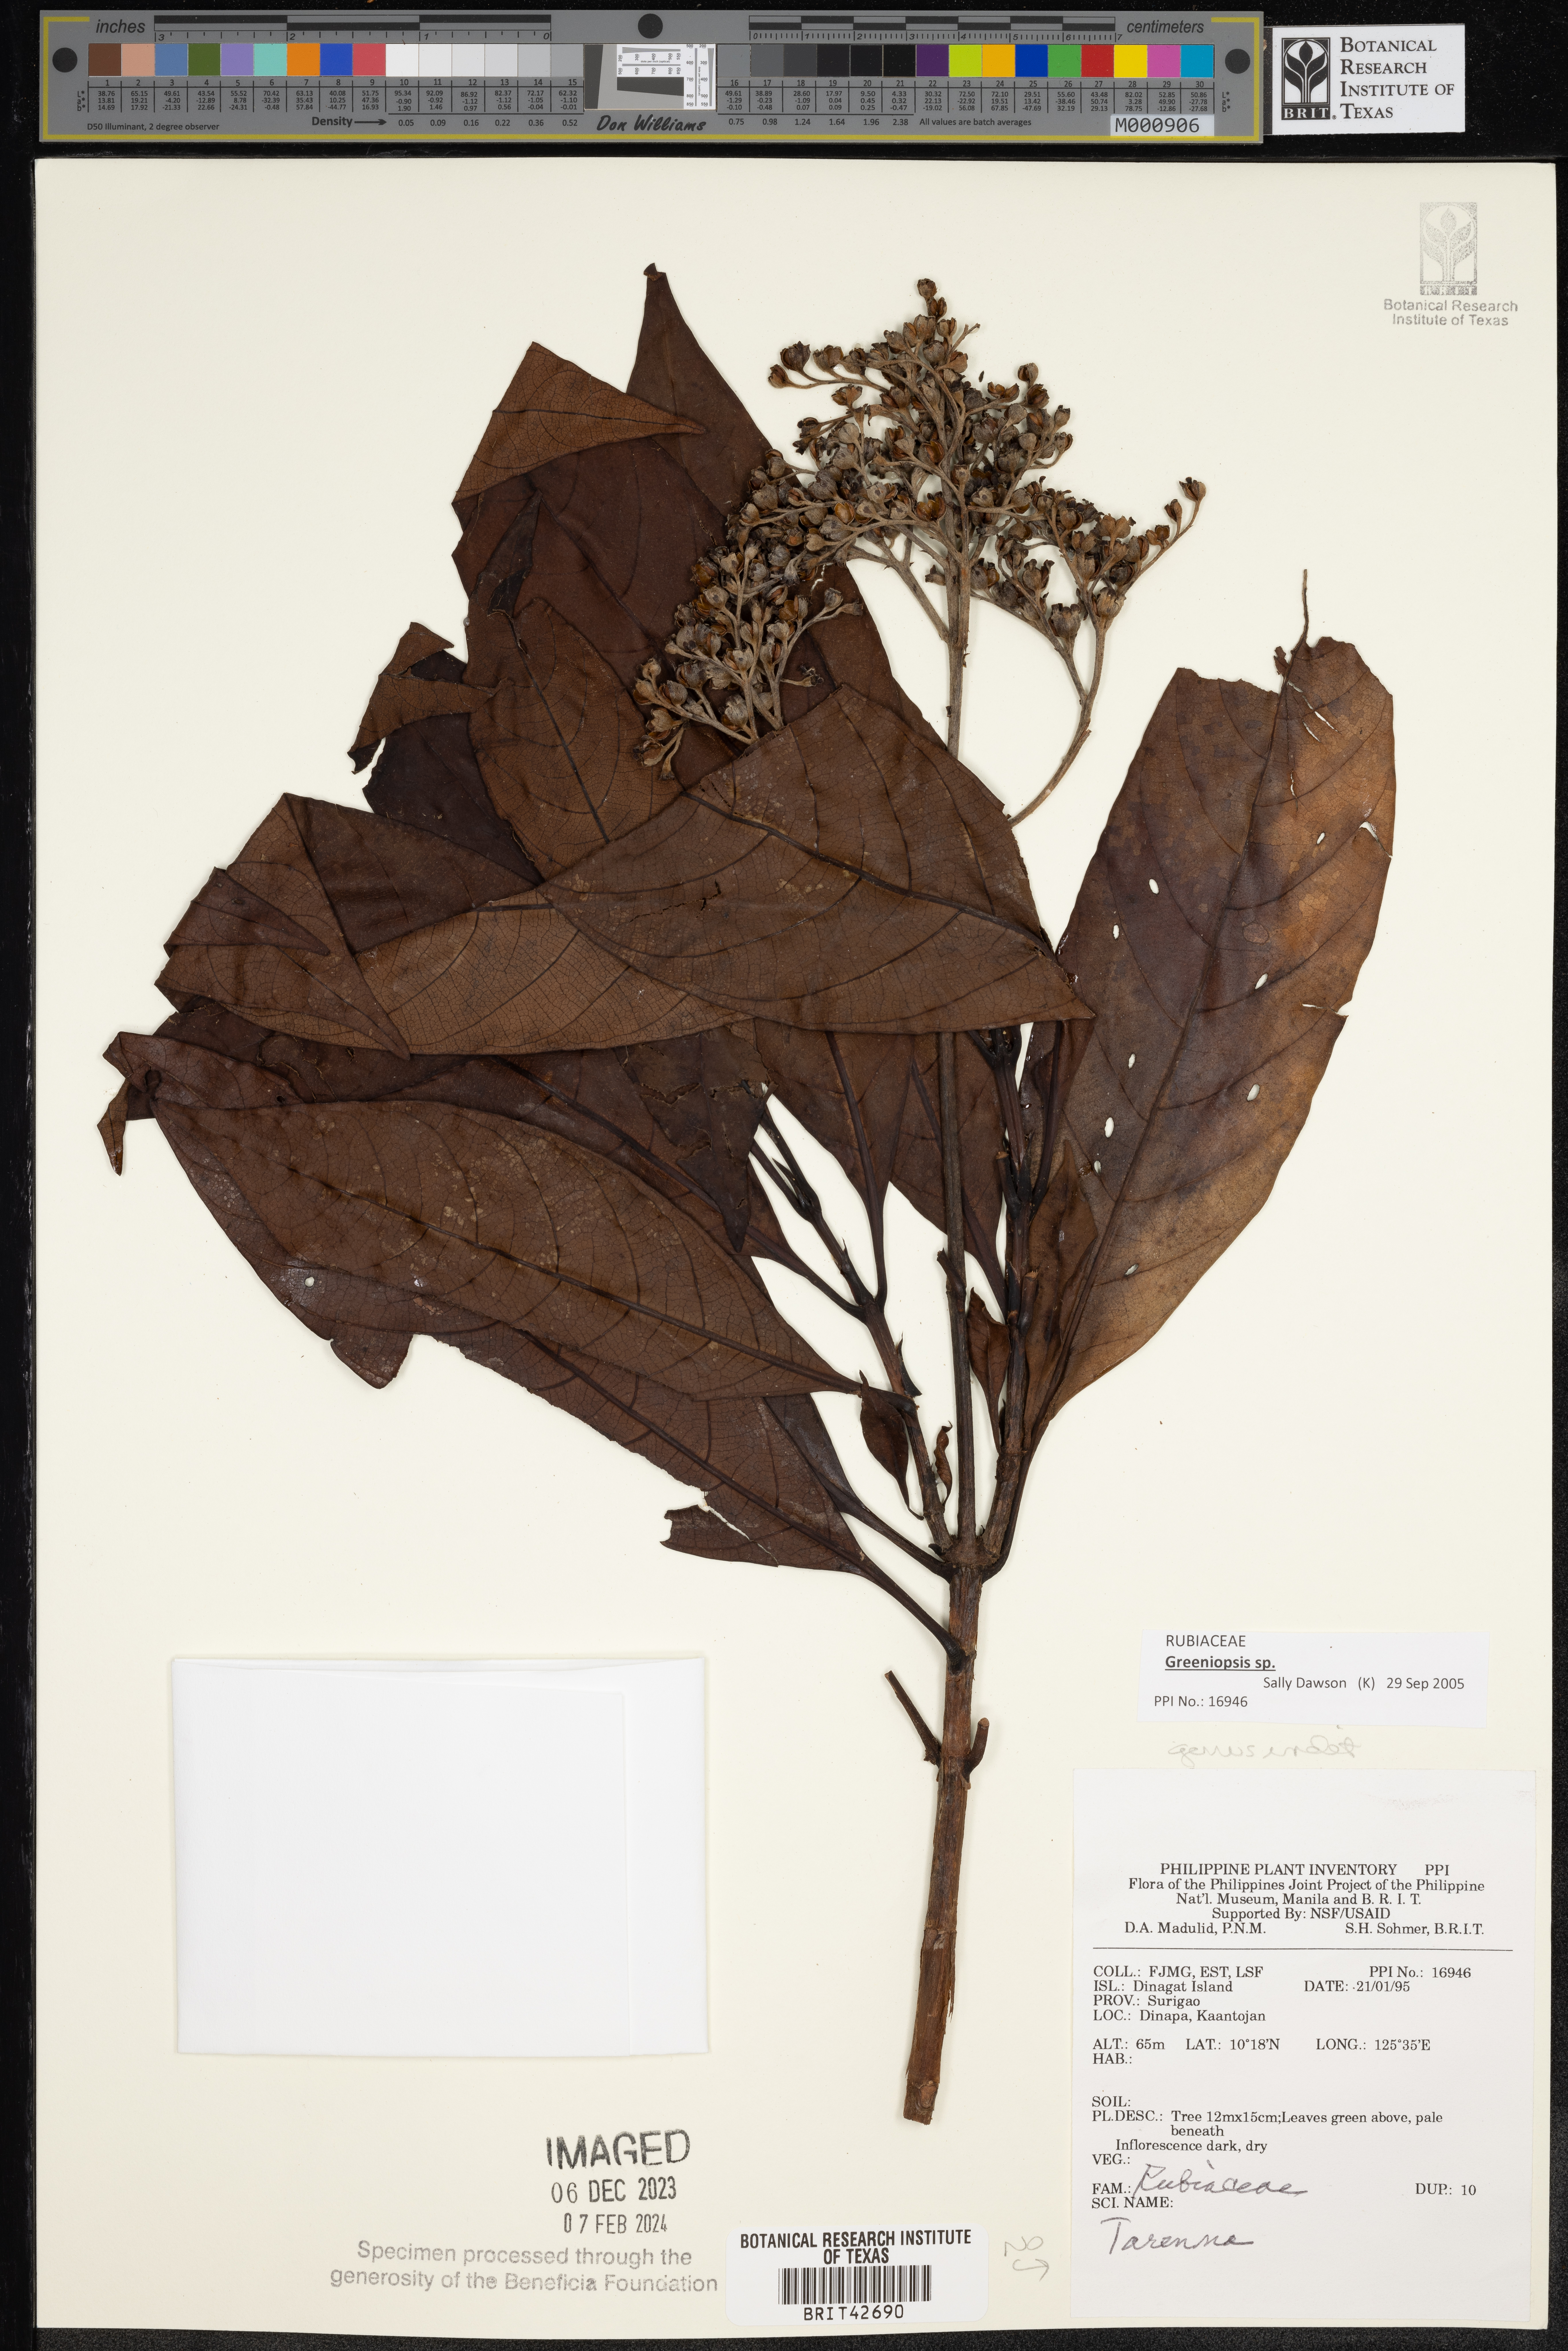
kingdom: Plantae
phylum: Tracheophyta
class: Magnoliopsida
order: Gentianales
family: Rubiaceae
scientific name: Rubiaceae
